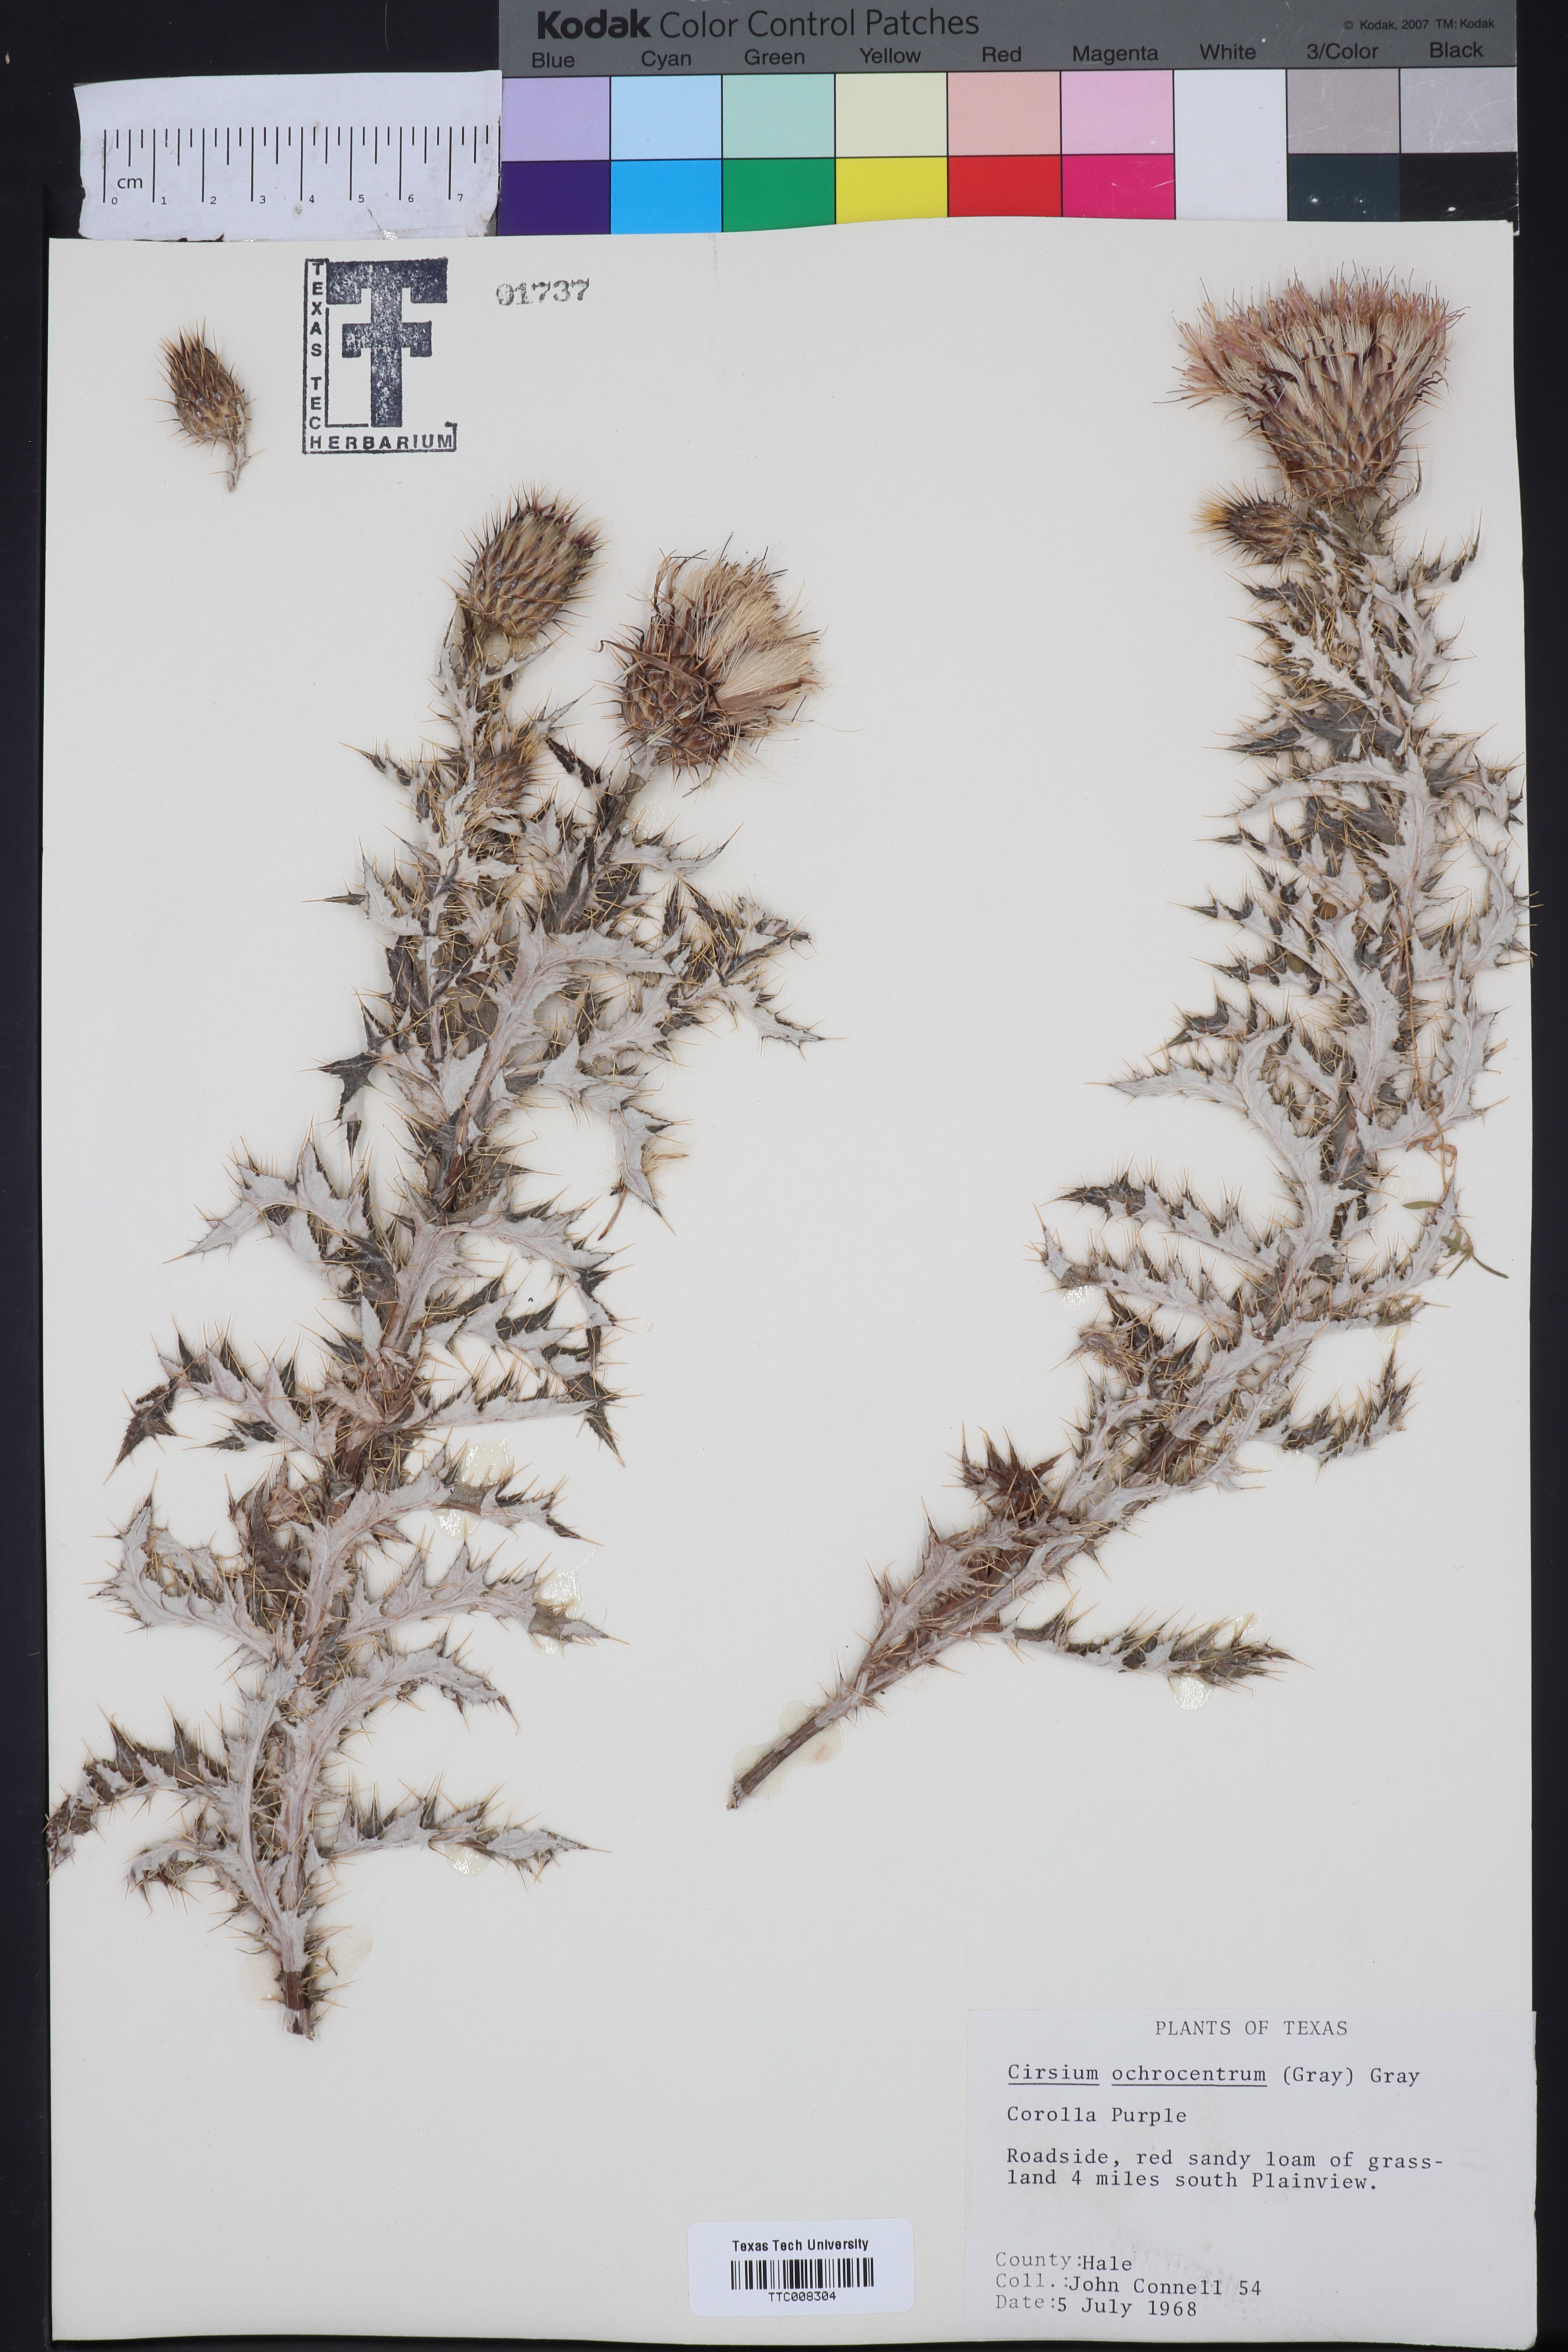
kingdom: Plantae
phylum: Tracheophyta
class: Magnoliopsida
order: Asterales
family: Asteraceae
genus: Cirsium
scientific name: Cirsium ochrocentrum
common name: Yellow-spine thistle
